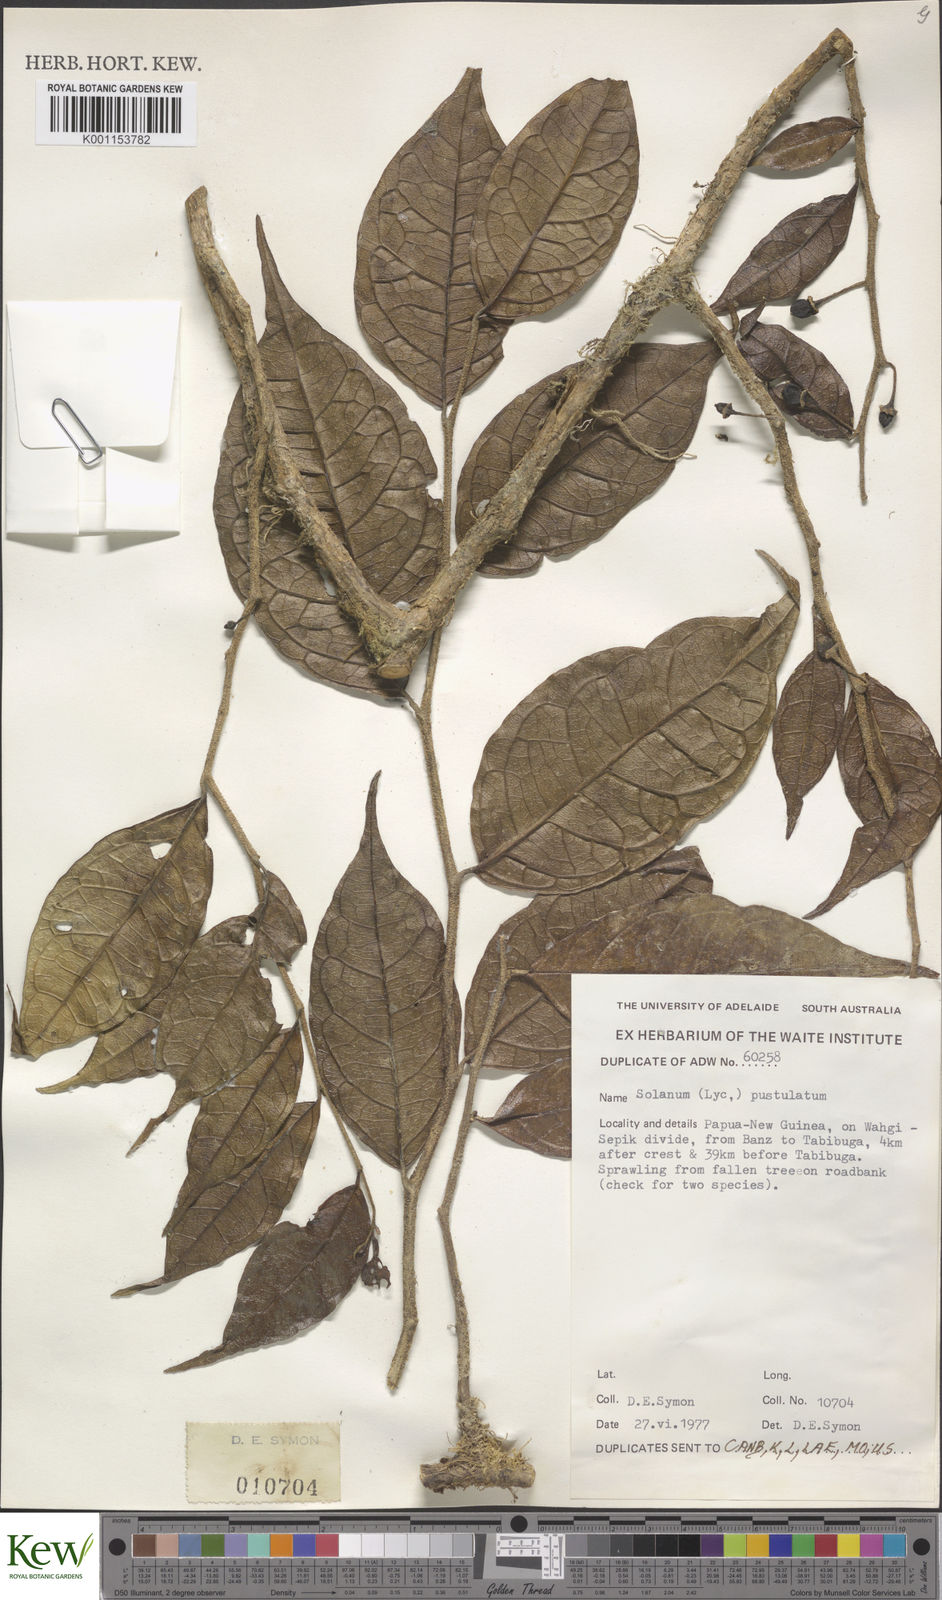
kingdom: Plantae
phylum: Tracheophyta
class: Magnoliopsida
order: Solanales
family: Solanaceae
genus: Lycianthes
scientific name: Lycianthes rostellata
